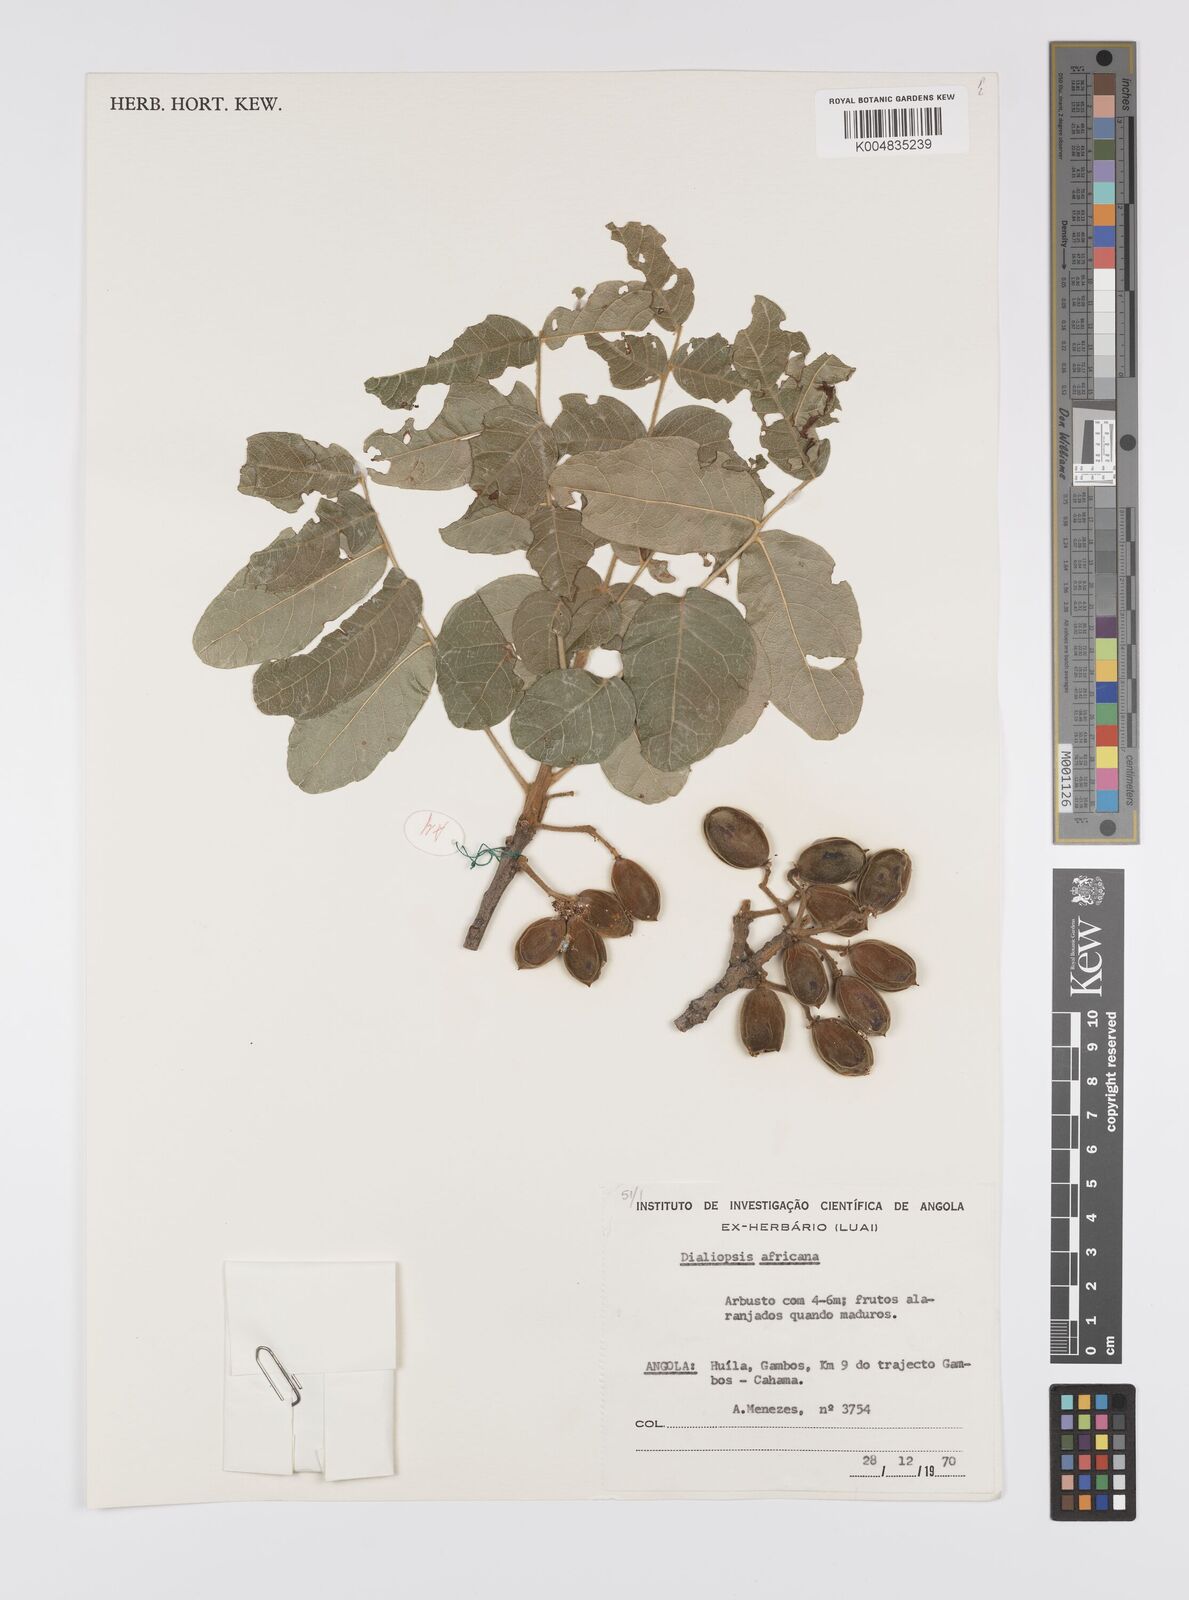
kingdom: Plantae
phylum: Tracheophyta
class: Magnoliopsida
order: Sapindales
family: Sapindaceae
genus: Zanha
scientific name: Zanha africana
